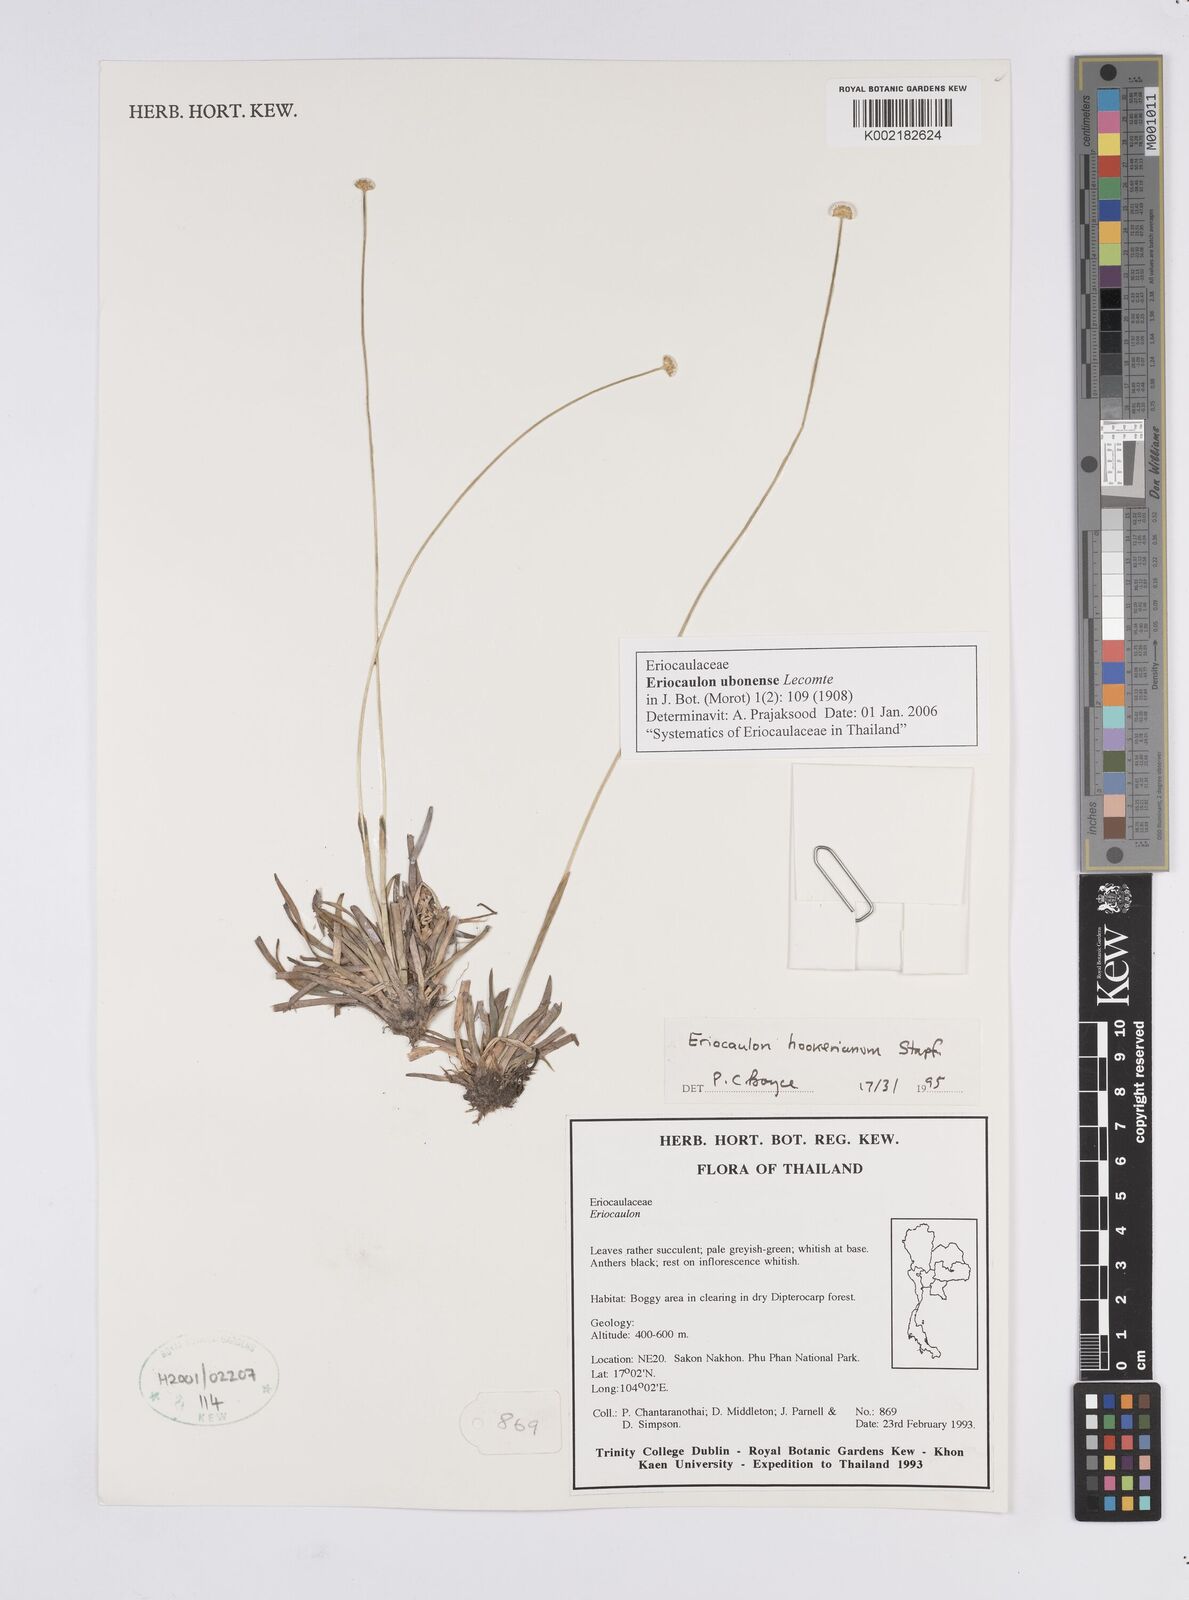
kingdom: Plantae
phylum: Tracheophyta
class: Liliopsida
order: Poales
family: Eriocaulaceae
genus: Eriocaulon
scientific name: Eriocaulon ubonense
